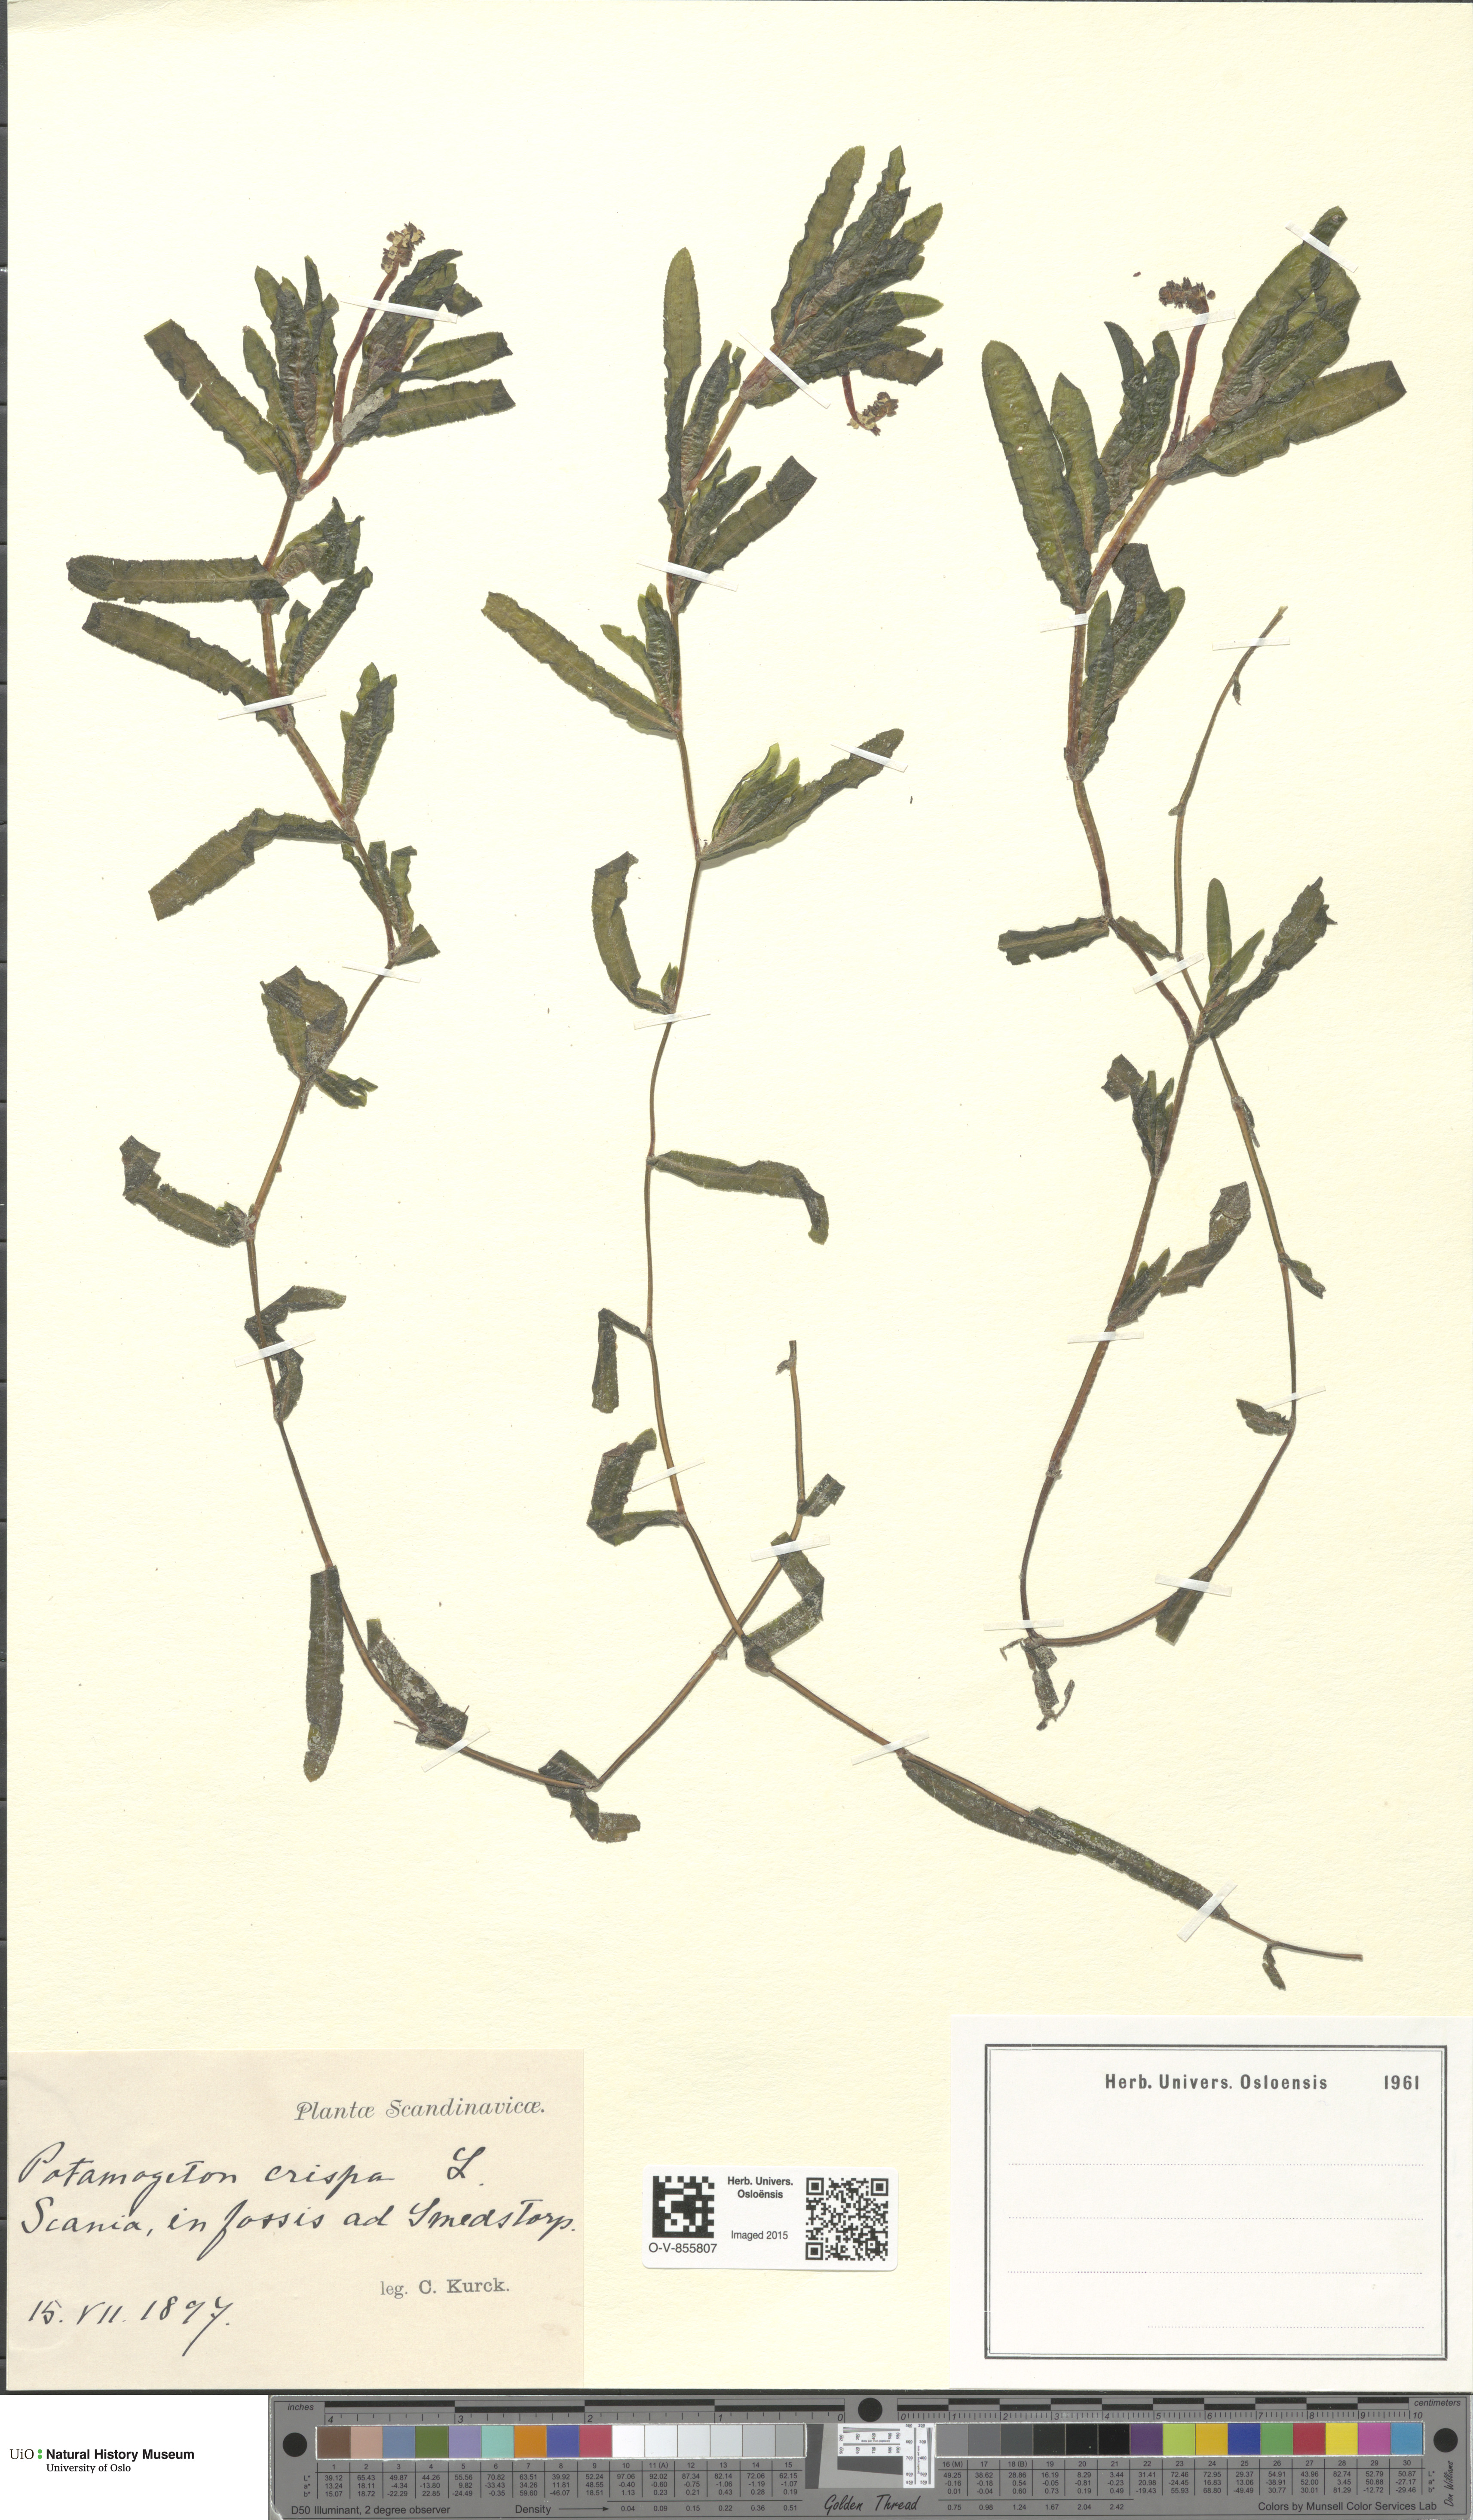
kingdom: Plantae
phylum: Tracheophyta
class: Liliopsida
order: Alismatales
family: Potamogetonaceae
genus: Potamogeton
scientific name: Potamogeton crispus
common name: Curled pondweed
